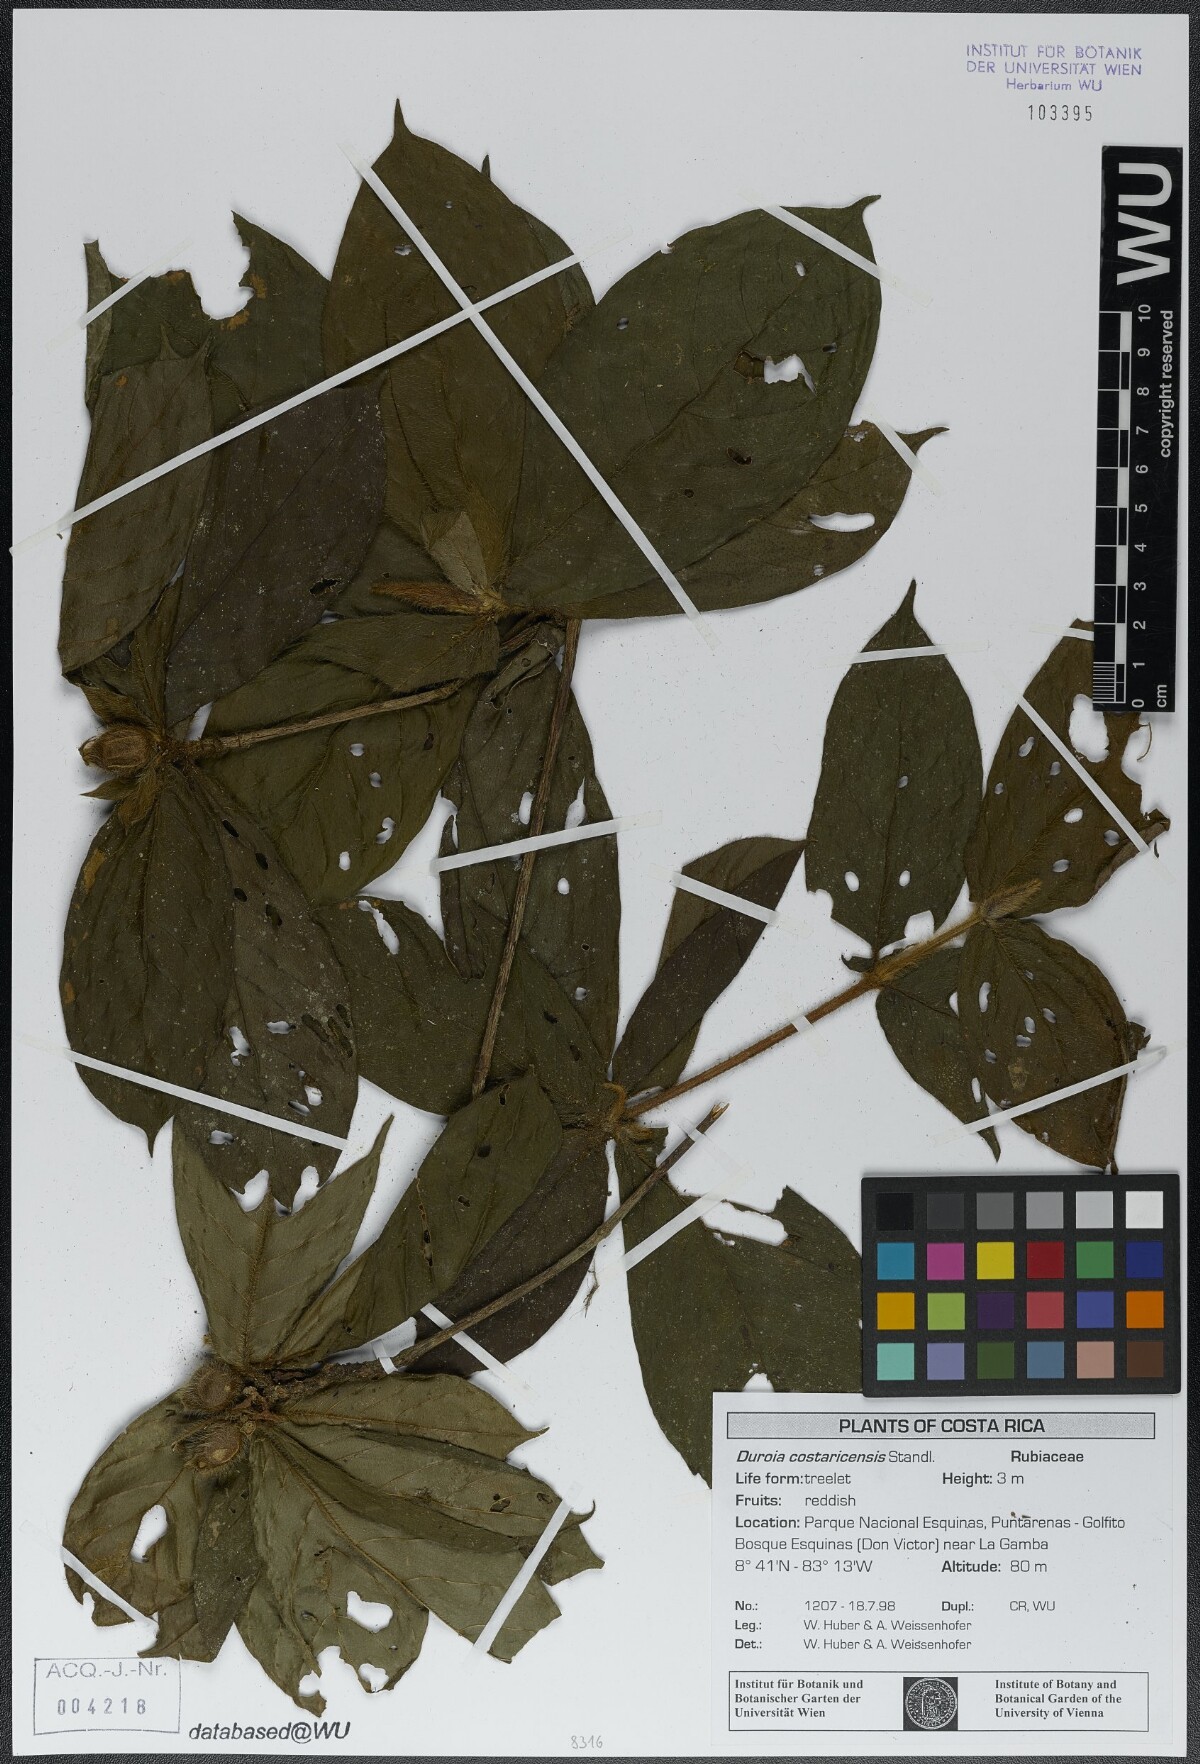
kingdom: Plantae
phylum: Tracheophyta
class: Magnoliopsida
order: Gentianales
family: Rubiaceae
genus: Duroia
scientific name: Duroia costaricensis
